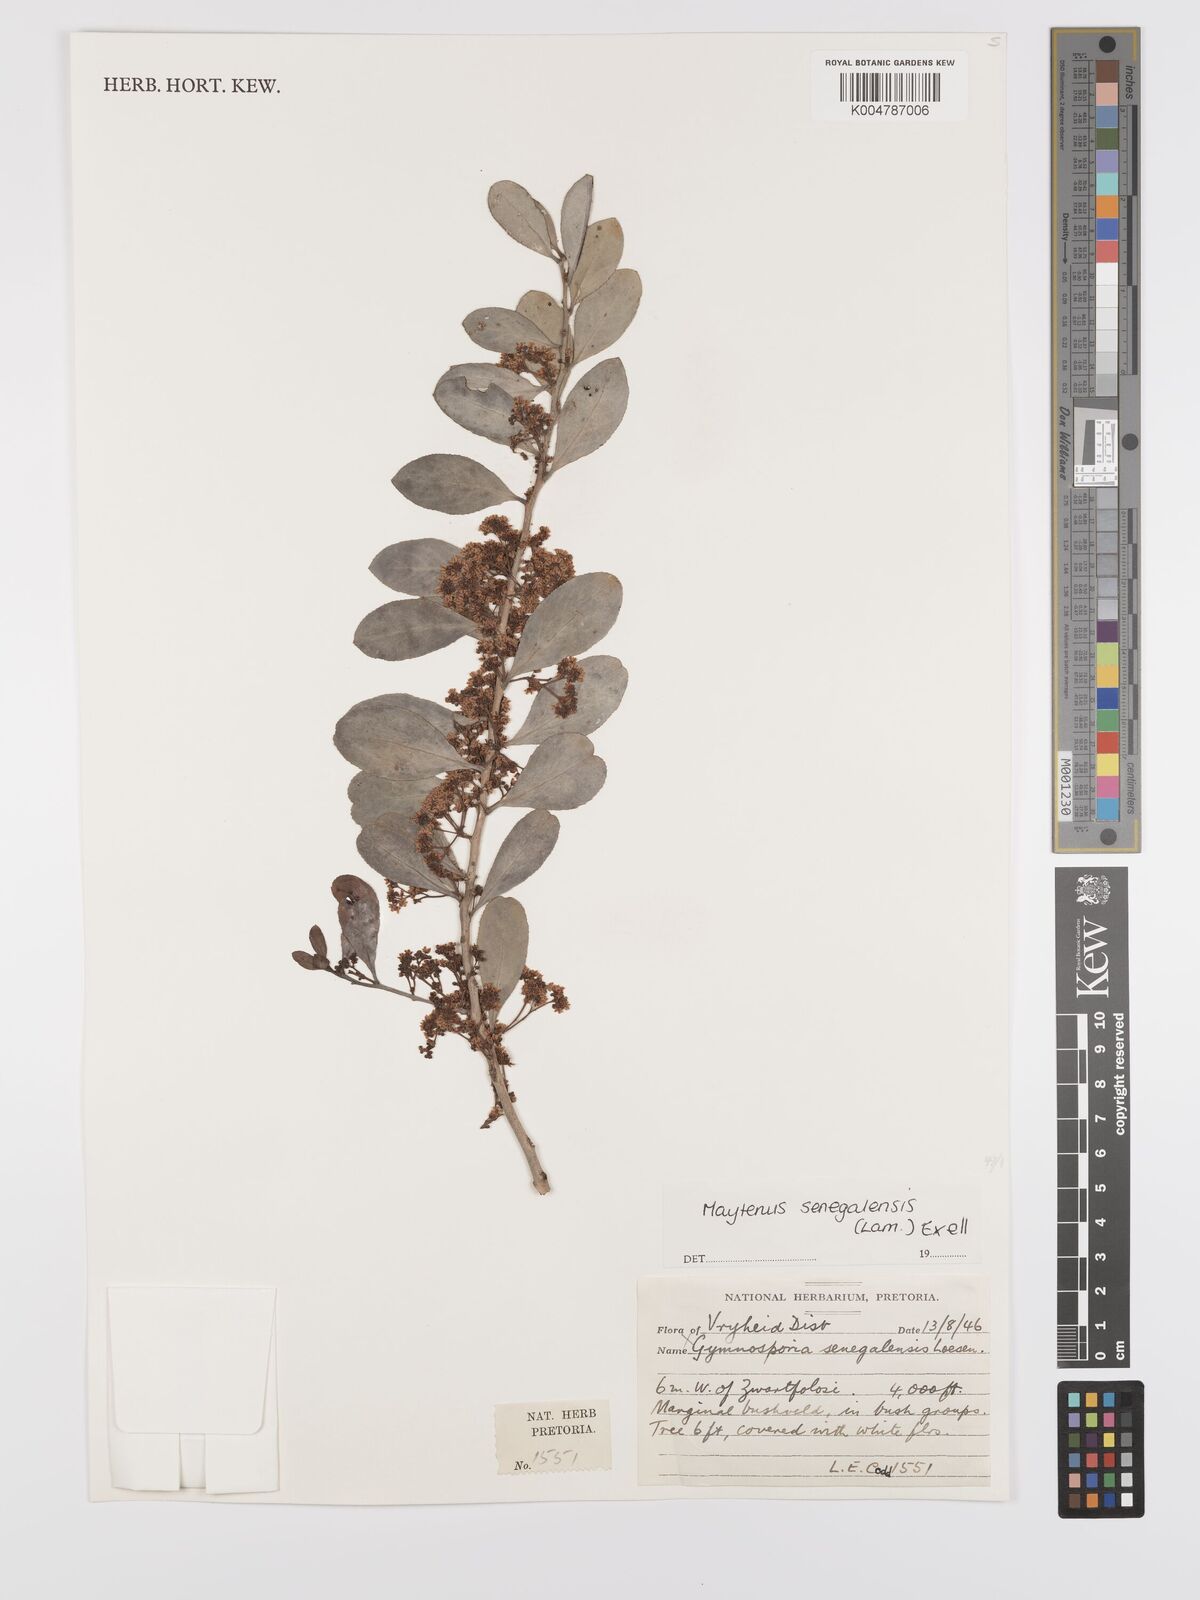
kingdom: Plantae
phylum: Tracheophyta
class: Magnoliopsida
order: Celastrales
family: Celastraceae
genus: Gymnosporia
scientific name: Gymnosporia senegalensis
